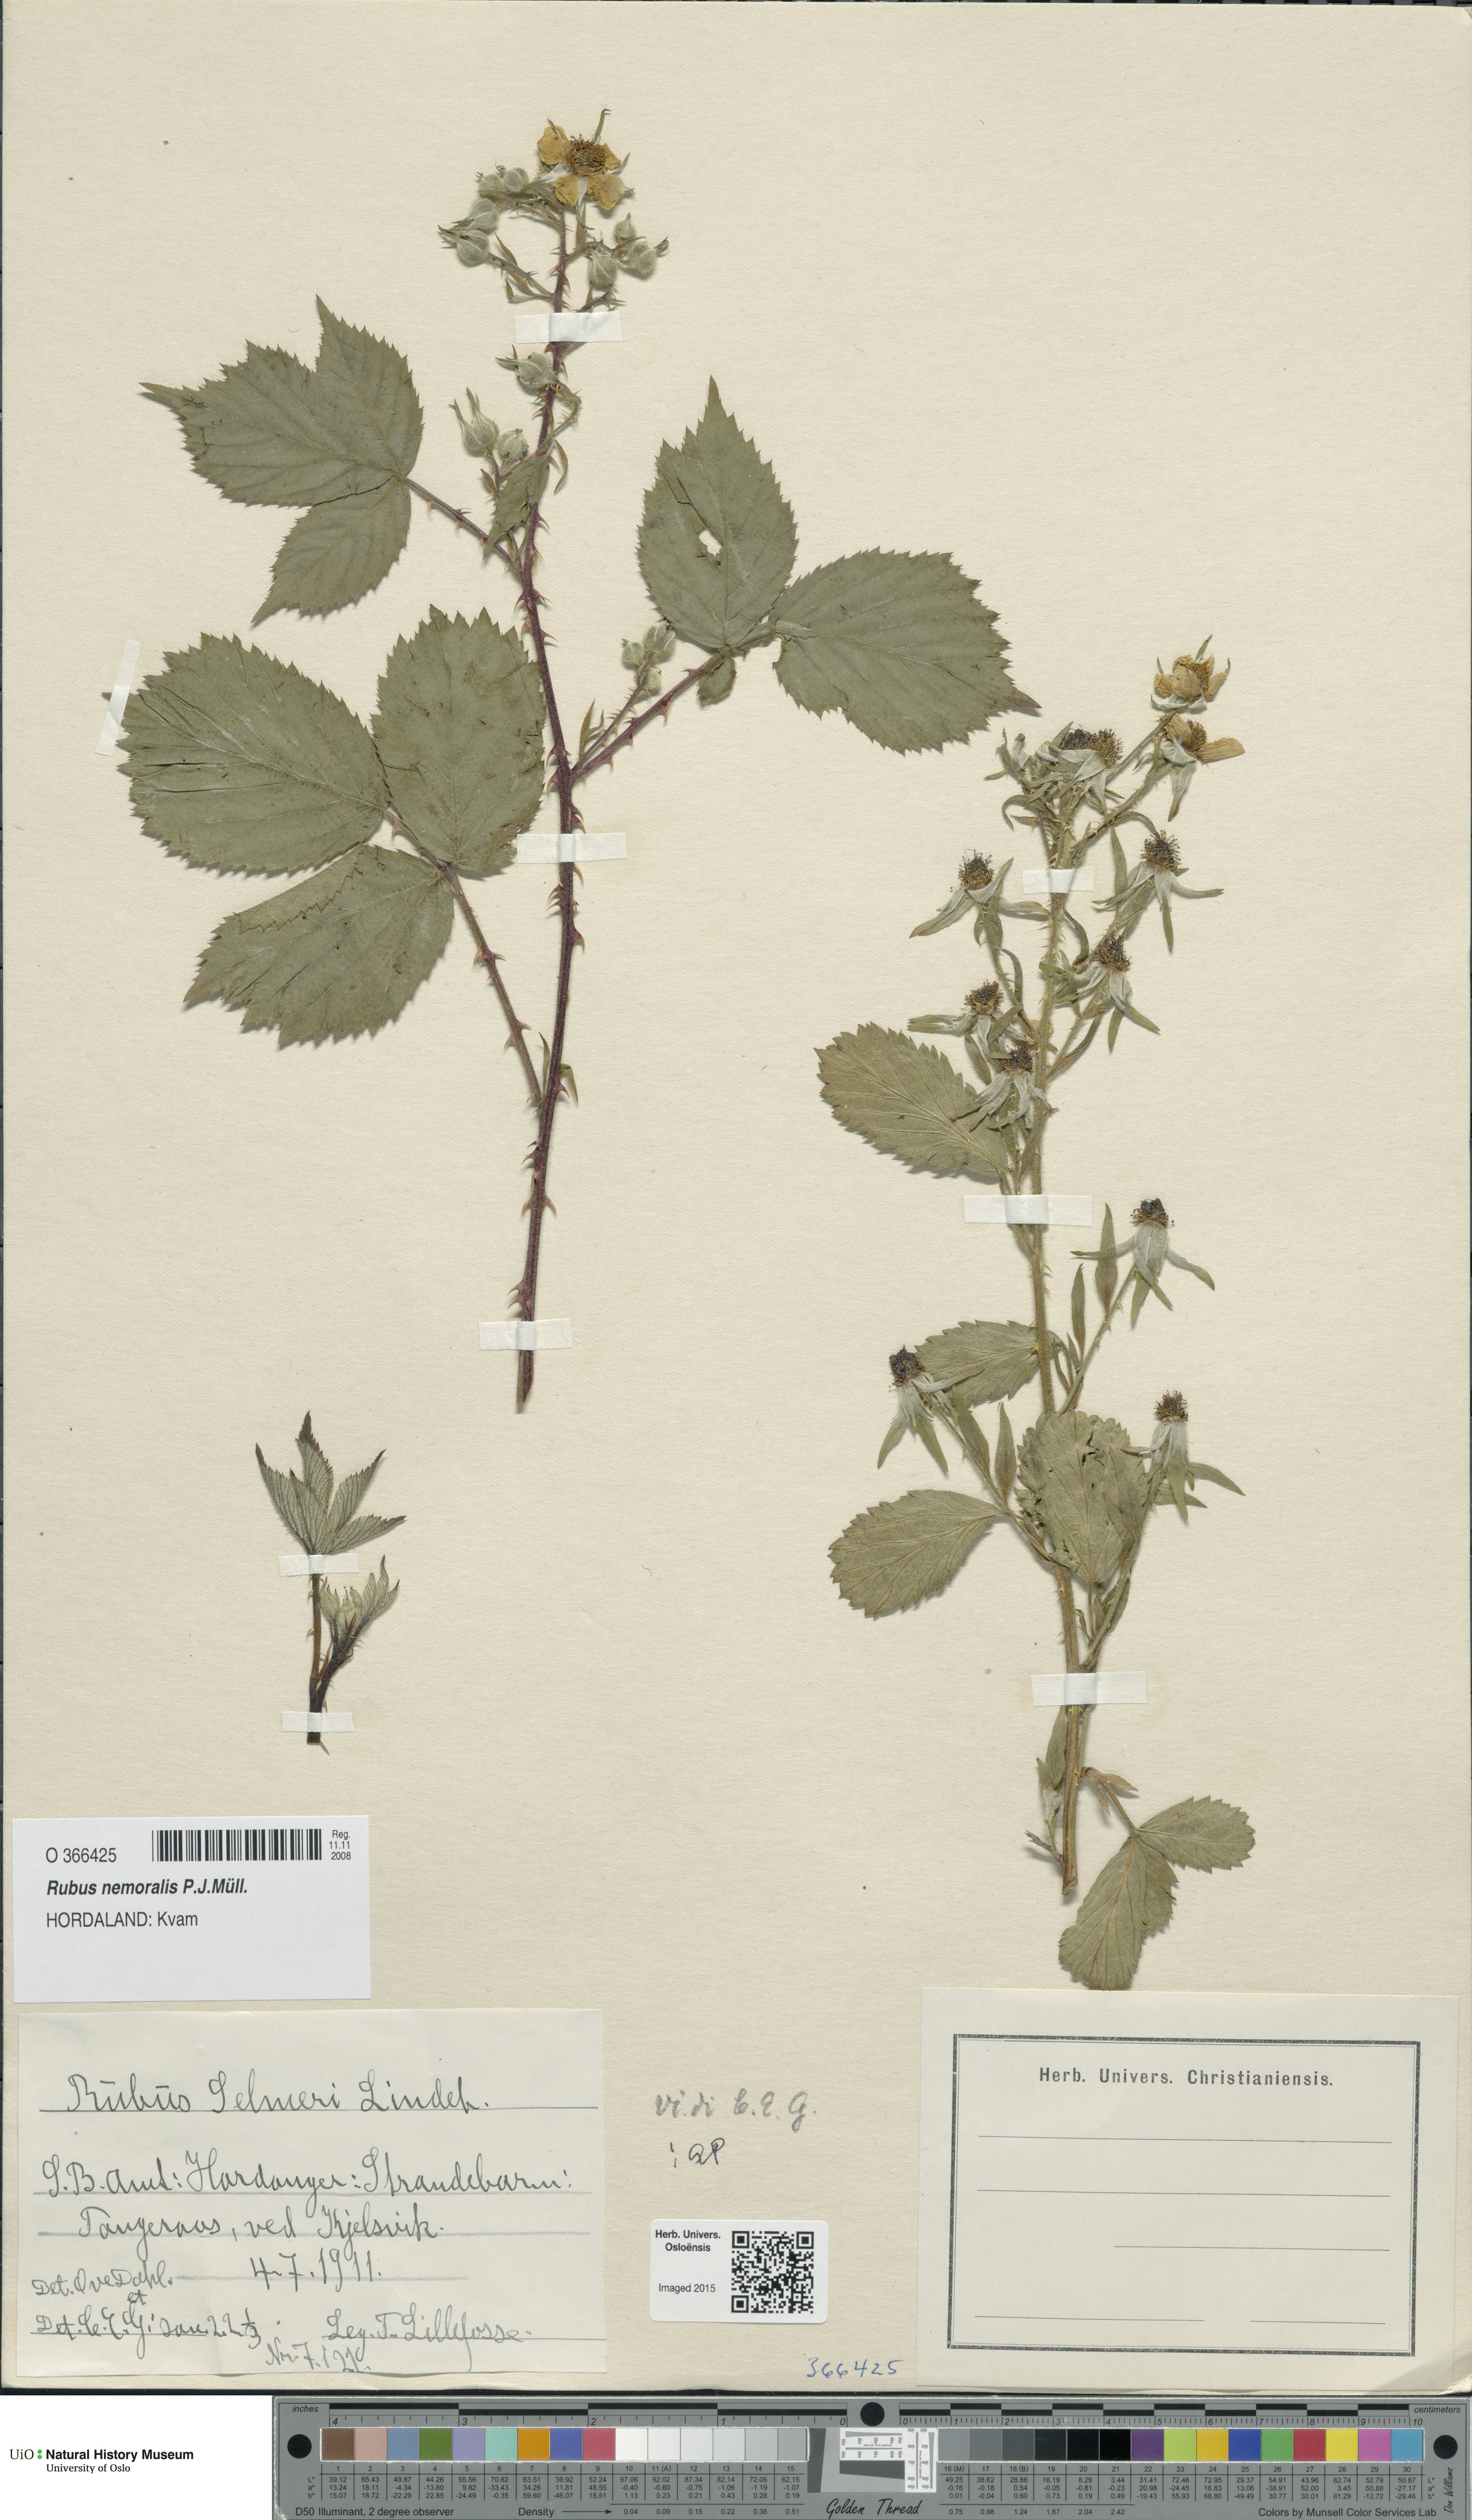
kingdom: Plantae
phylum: Tracheophyta
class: Magnoliopsida
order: Rosales
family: Rosaceae
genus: Rubus
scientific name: Rubus nemoralis
